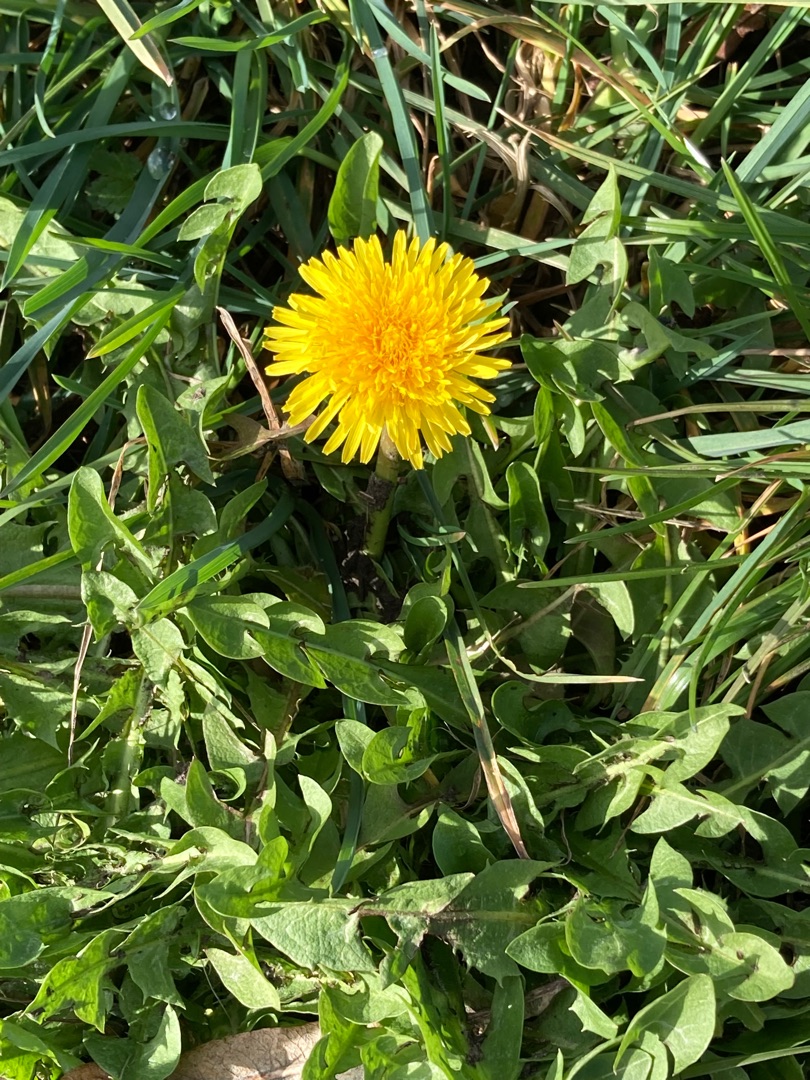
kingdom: Plantae
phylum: Tracheophyta
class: Magnoliopsida
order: Asterales
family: Asteraceae
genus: Taraxacum
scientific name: Taraxacum
